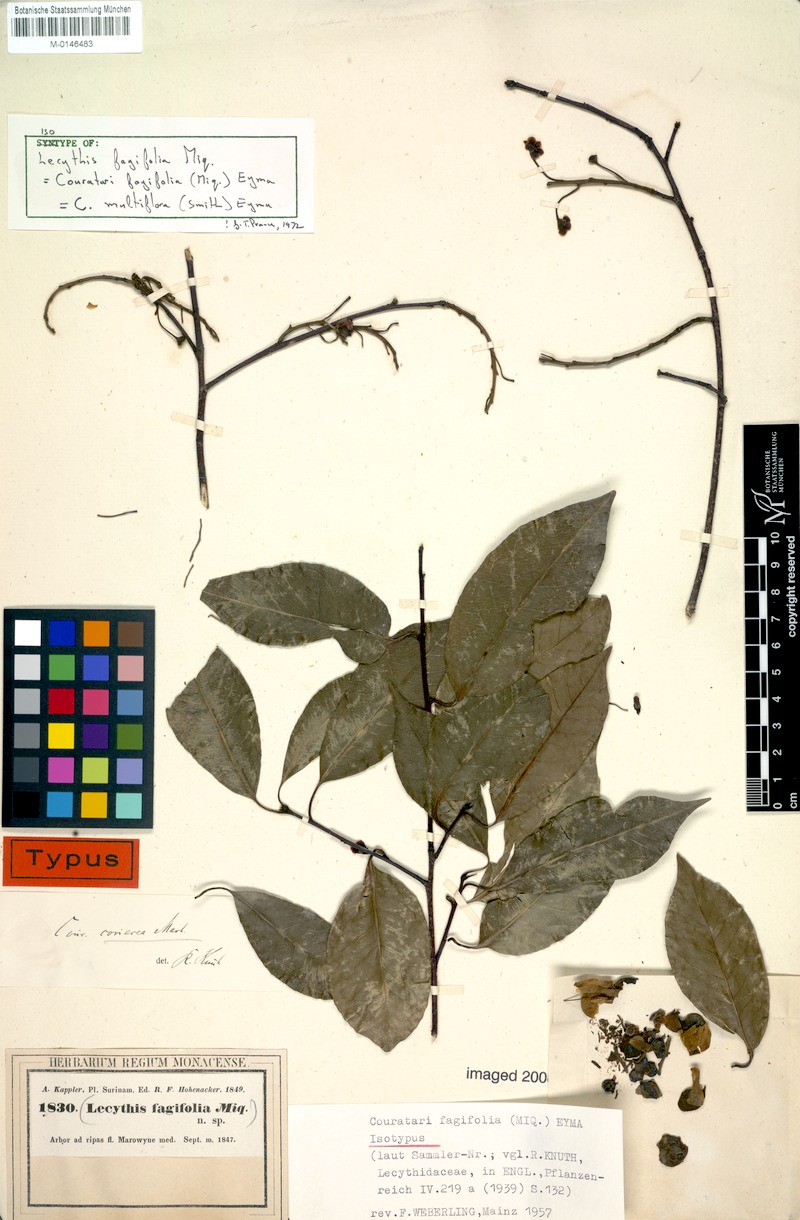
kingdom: Plantae
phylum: Tracheophyta
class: Magnoliopsida
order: Ericales
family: Lecythidaceae
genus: Couratari
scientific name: Couratari multiflora
